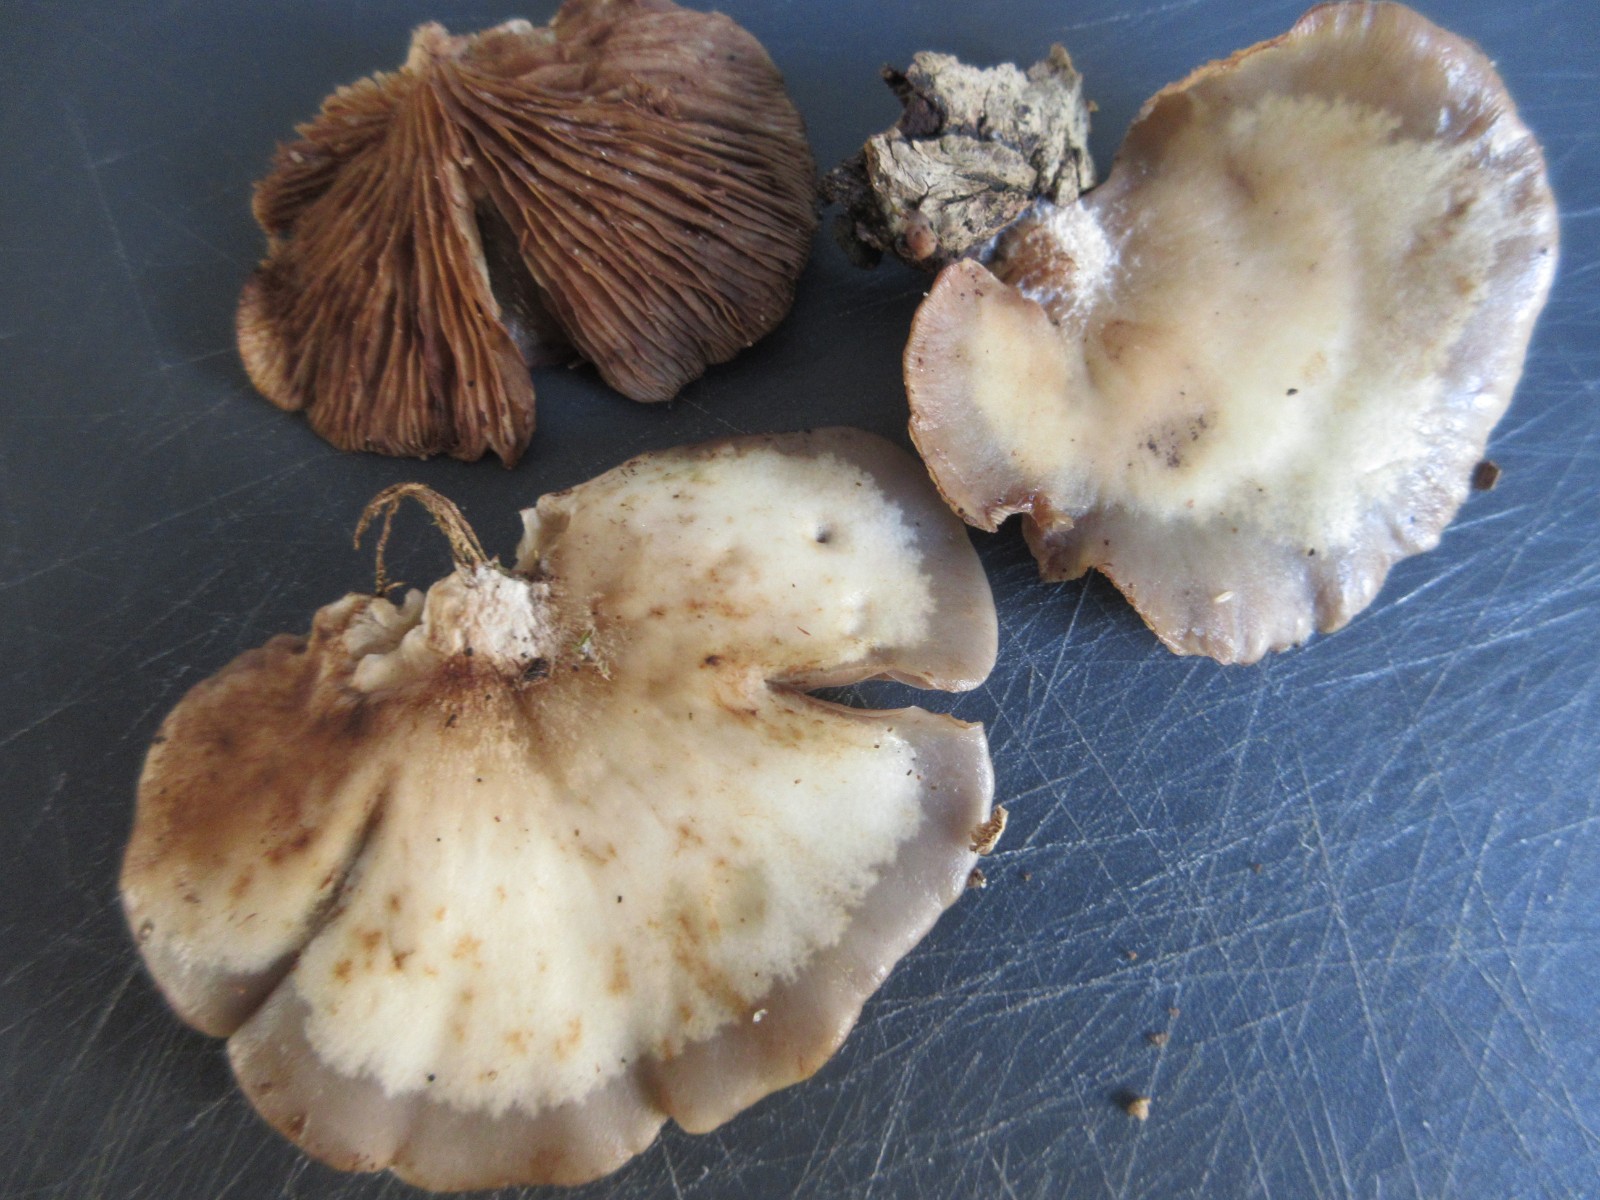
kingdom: Fungi
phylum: Basidiomycota
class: Agaricomycetes
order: Agaricales
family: Crepidotaceae
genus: Crepidotus
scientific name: Crepidotus mollis
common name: blød muslingesvamp
